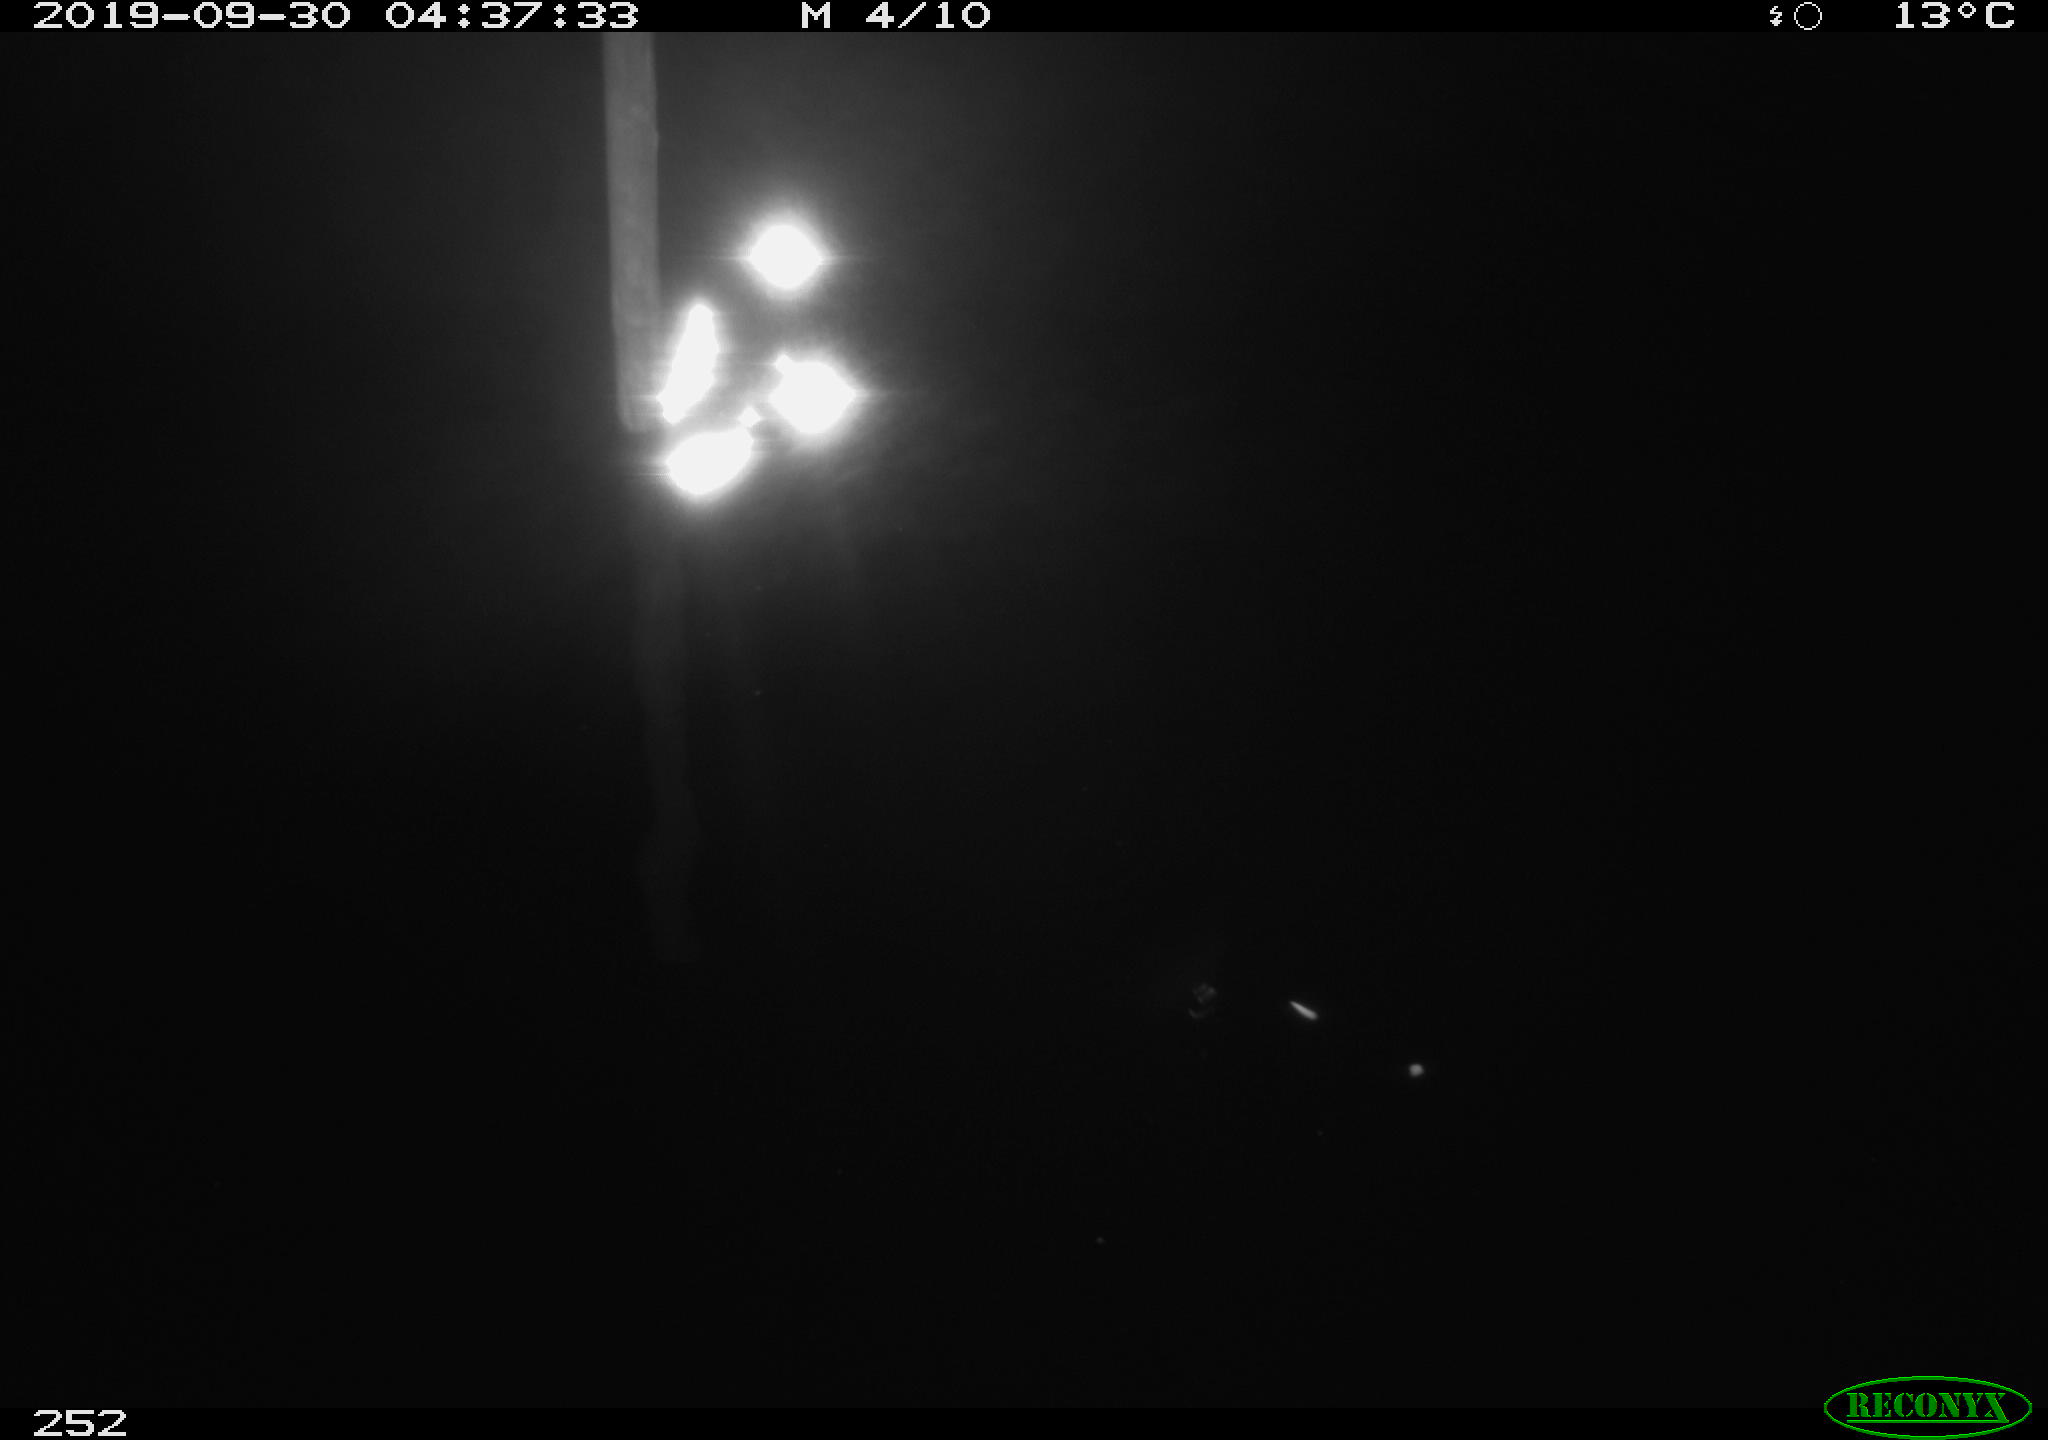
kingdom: Animalia
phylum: Chordata
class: Aves
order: Anseriformes
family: Anatidae
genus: Anas
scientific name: Anas platyrhynchos
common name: Mallard
